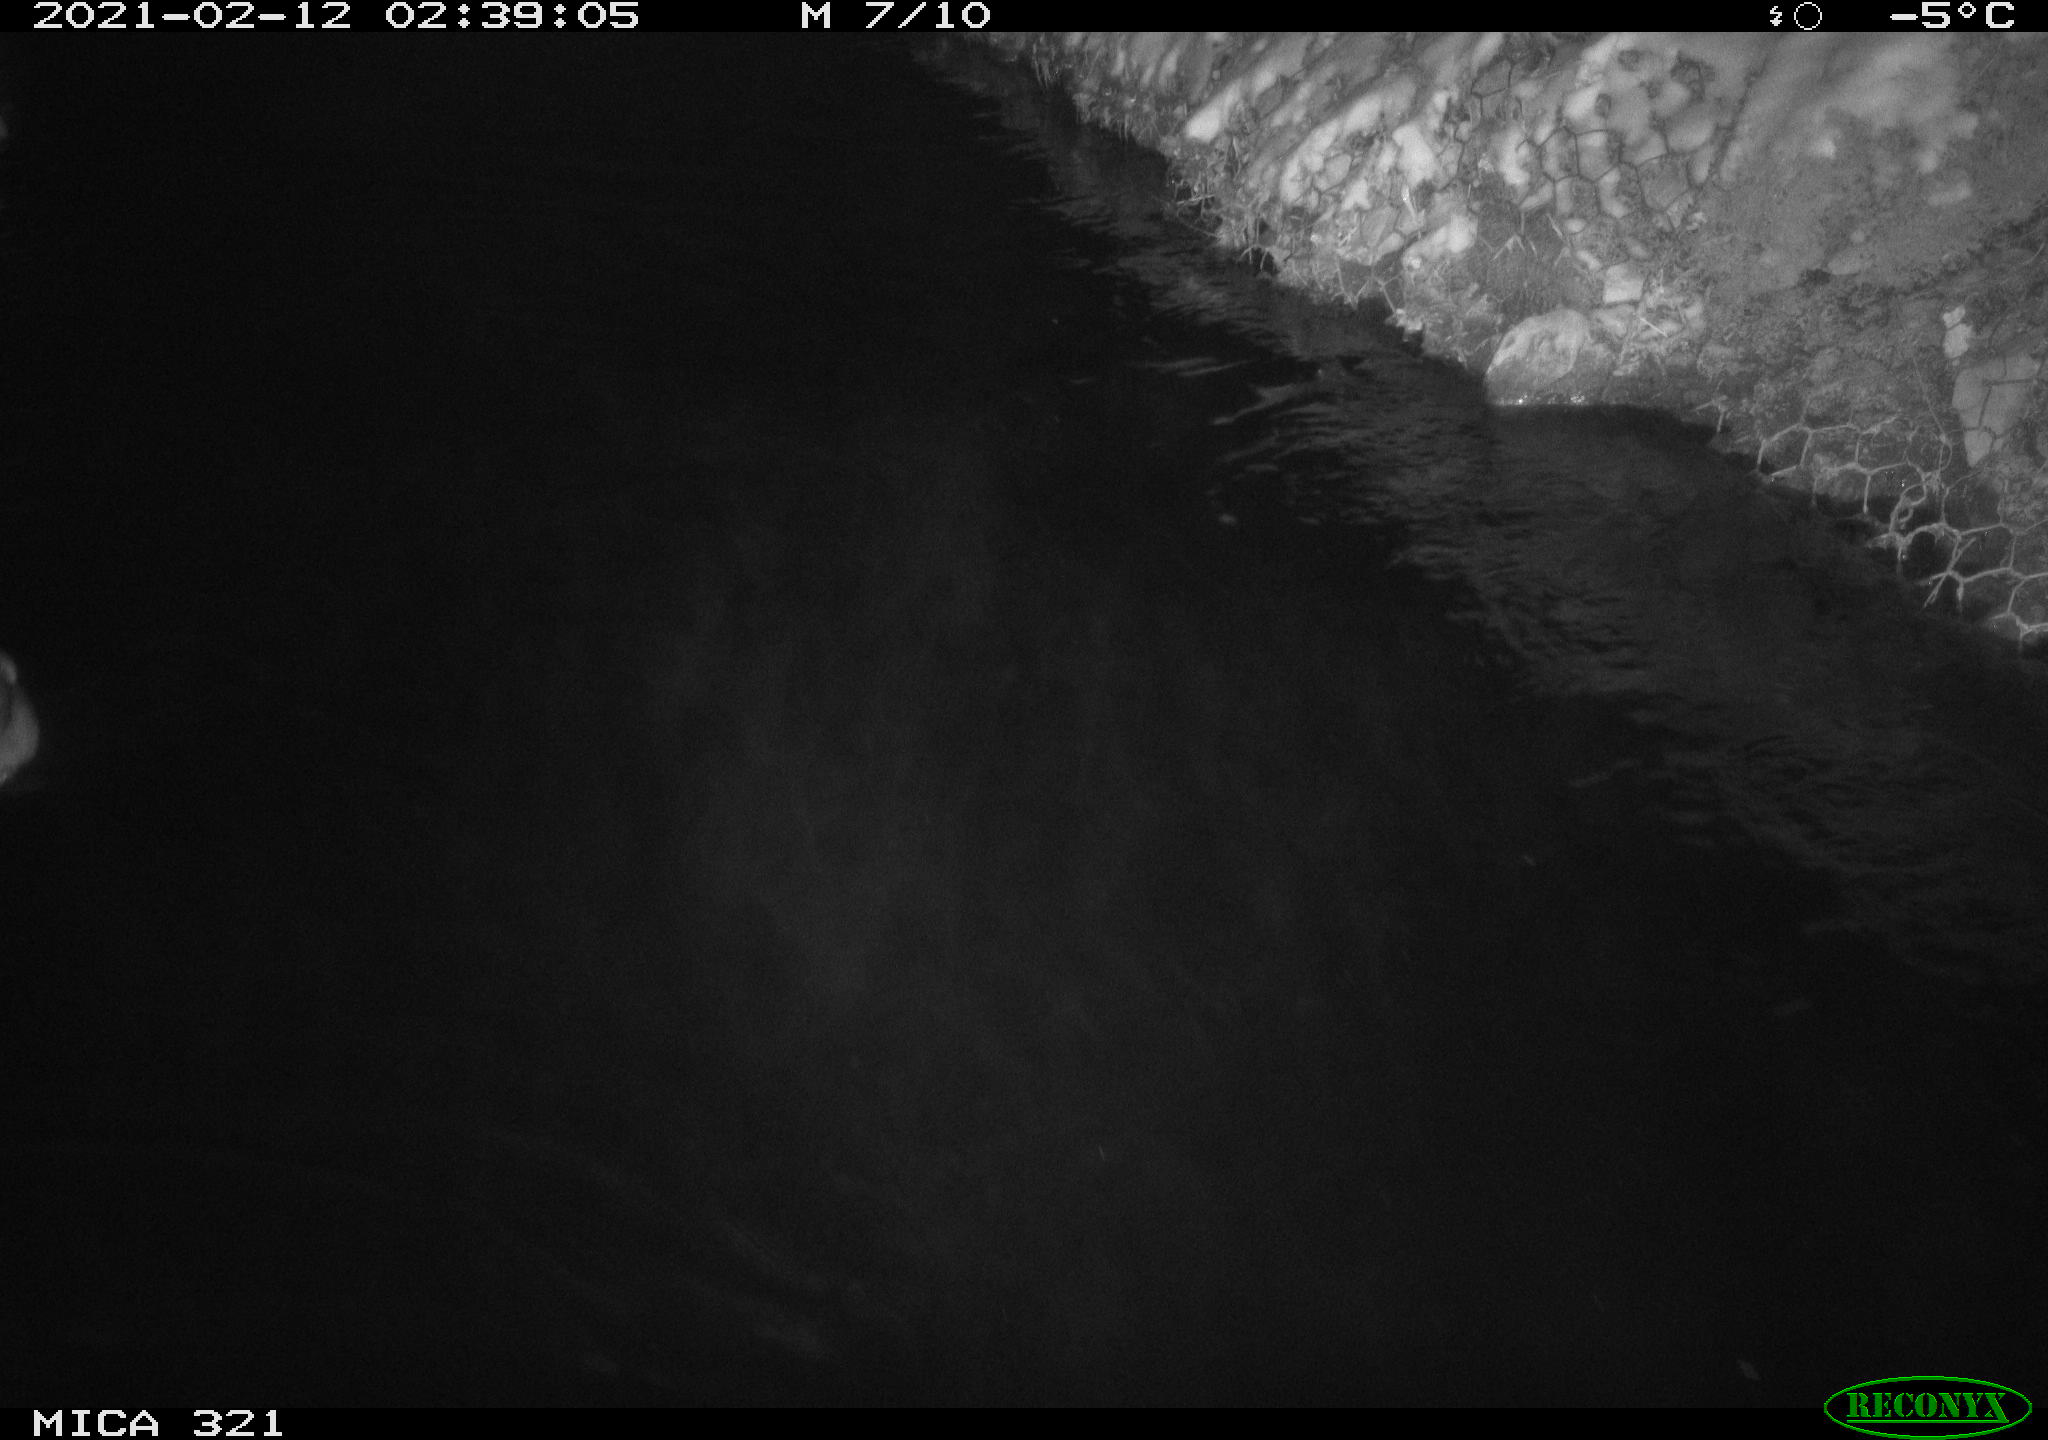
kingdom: Animalia
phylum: Chordata
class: Aves
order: Anseriformes
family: Anatidae
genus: Anas
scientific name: Anas platyrhynchos
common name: Mallard
